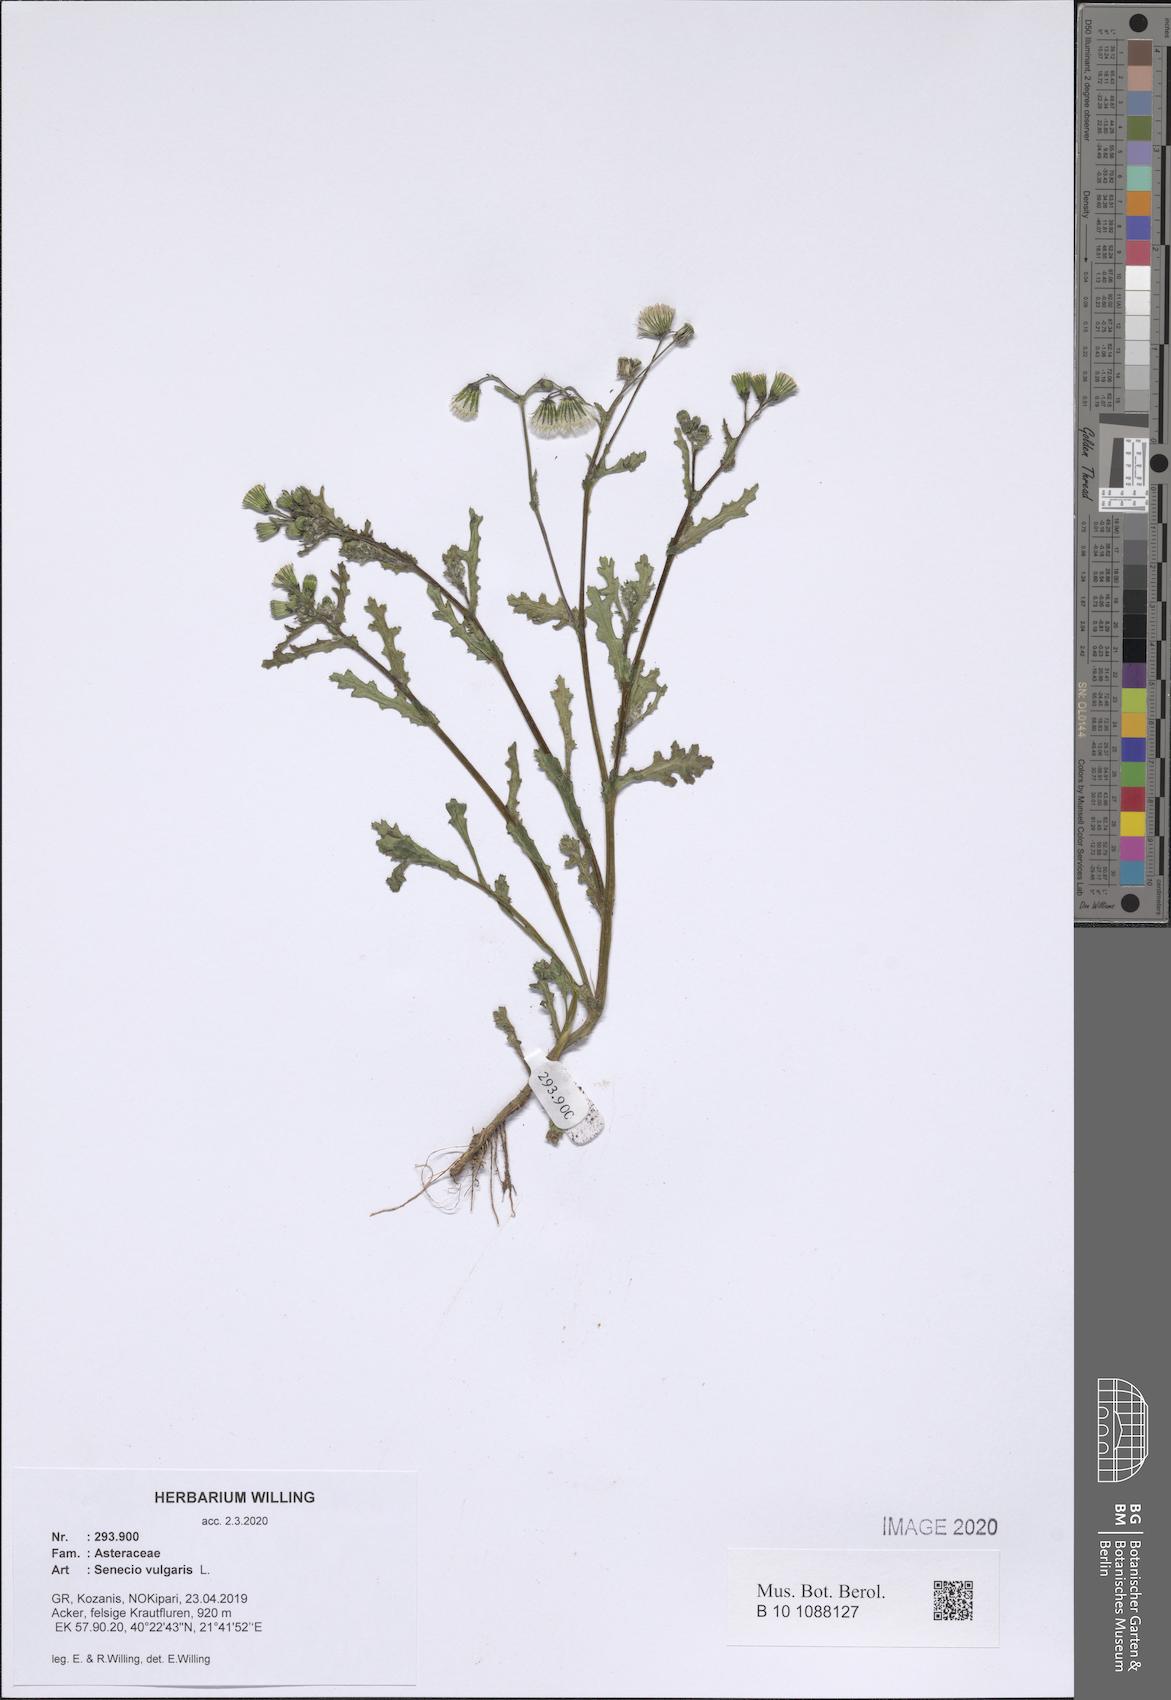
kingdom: Plantae
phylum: Tracheophyta
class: Magnoliopsida
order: Asterales
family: Asteraceae
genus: Senecio
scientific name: Senecio vulgaris
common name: Old-man-in-the-spring
